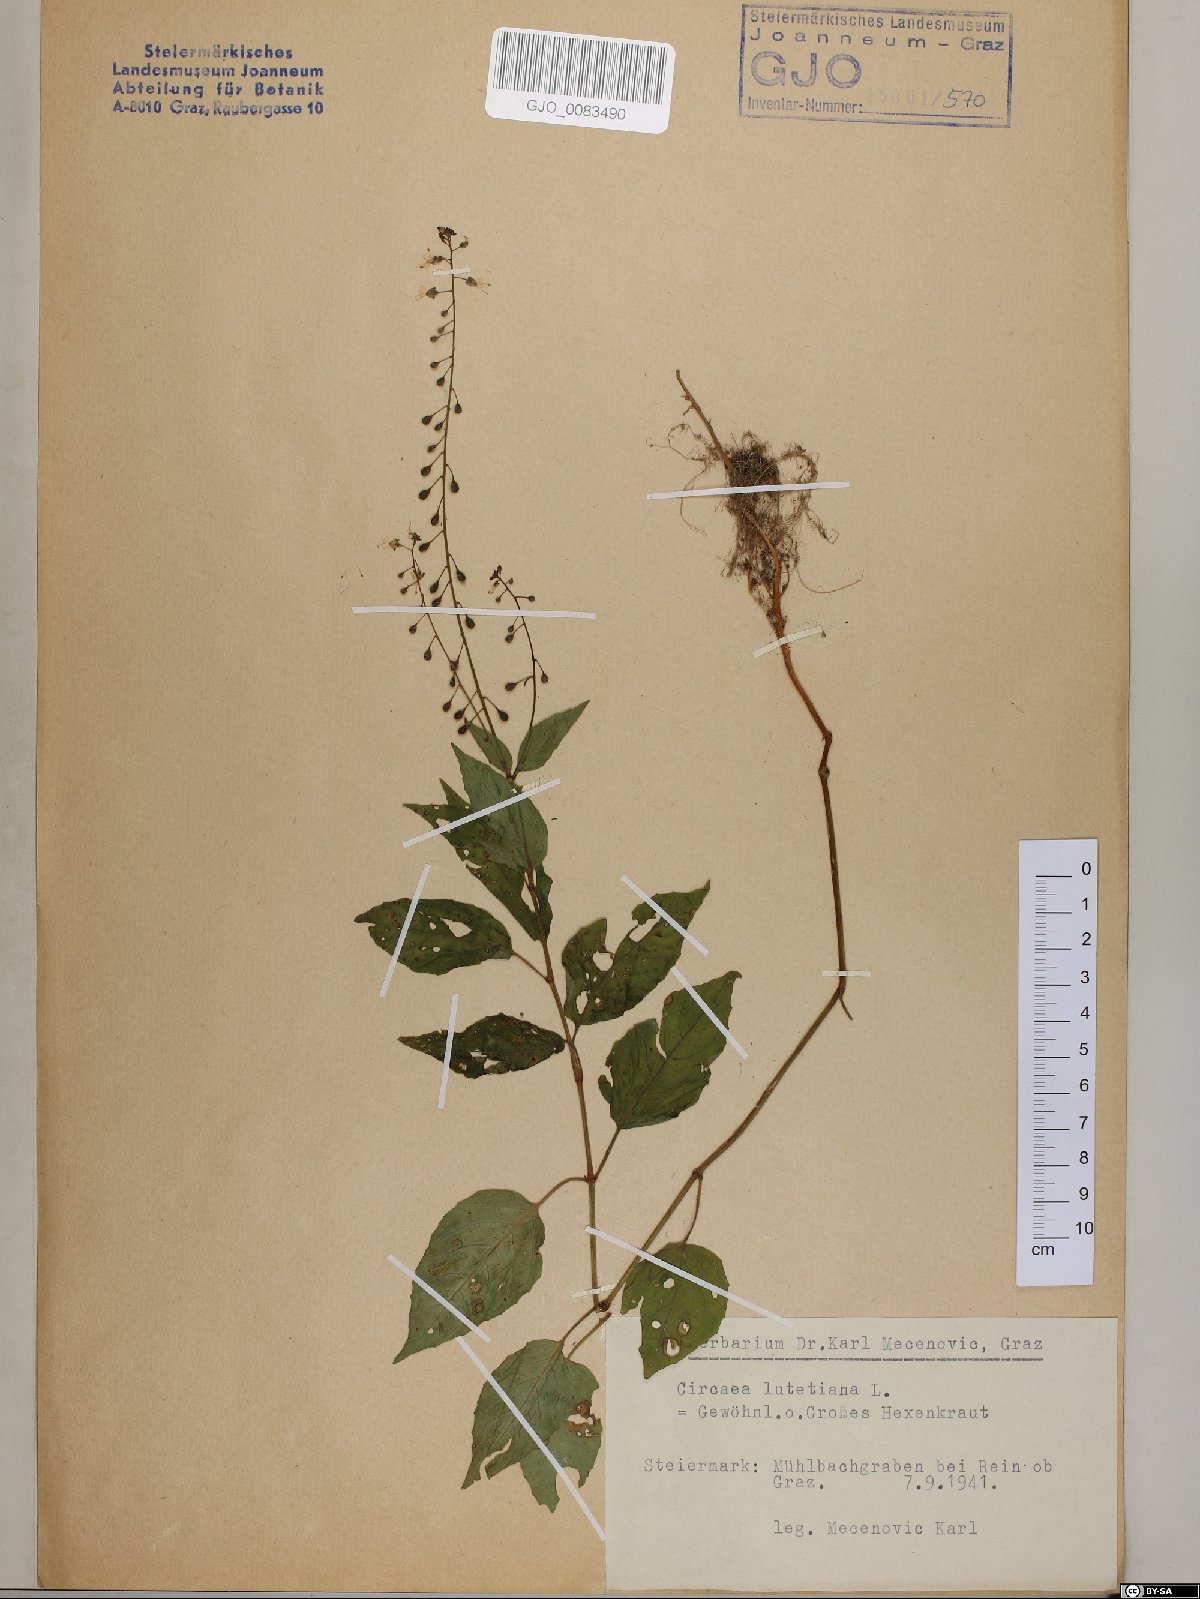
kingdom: Plantae
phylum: Tracheophyta
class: Magnoliopsida
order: Myrtales
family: Onagraceae
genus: Circaea
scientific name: Circaea lutetiana
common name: Enchanter's-nightshade
